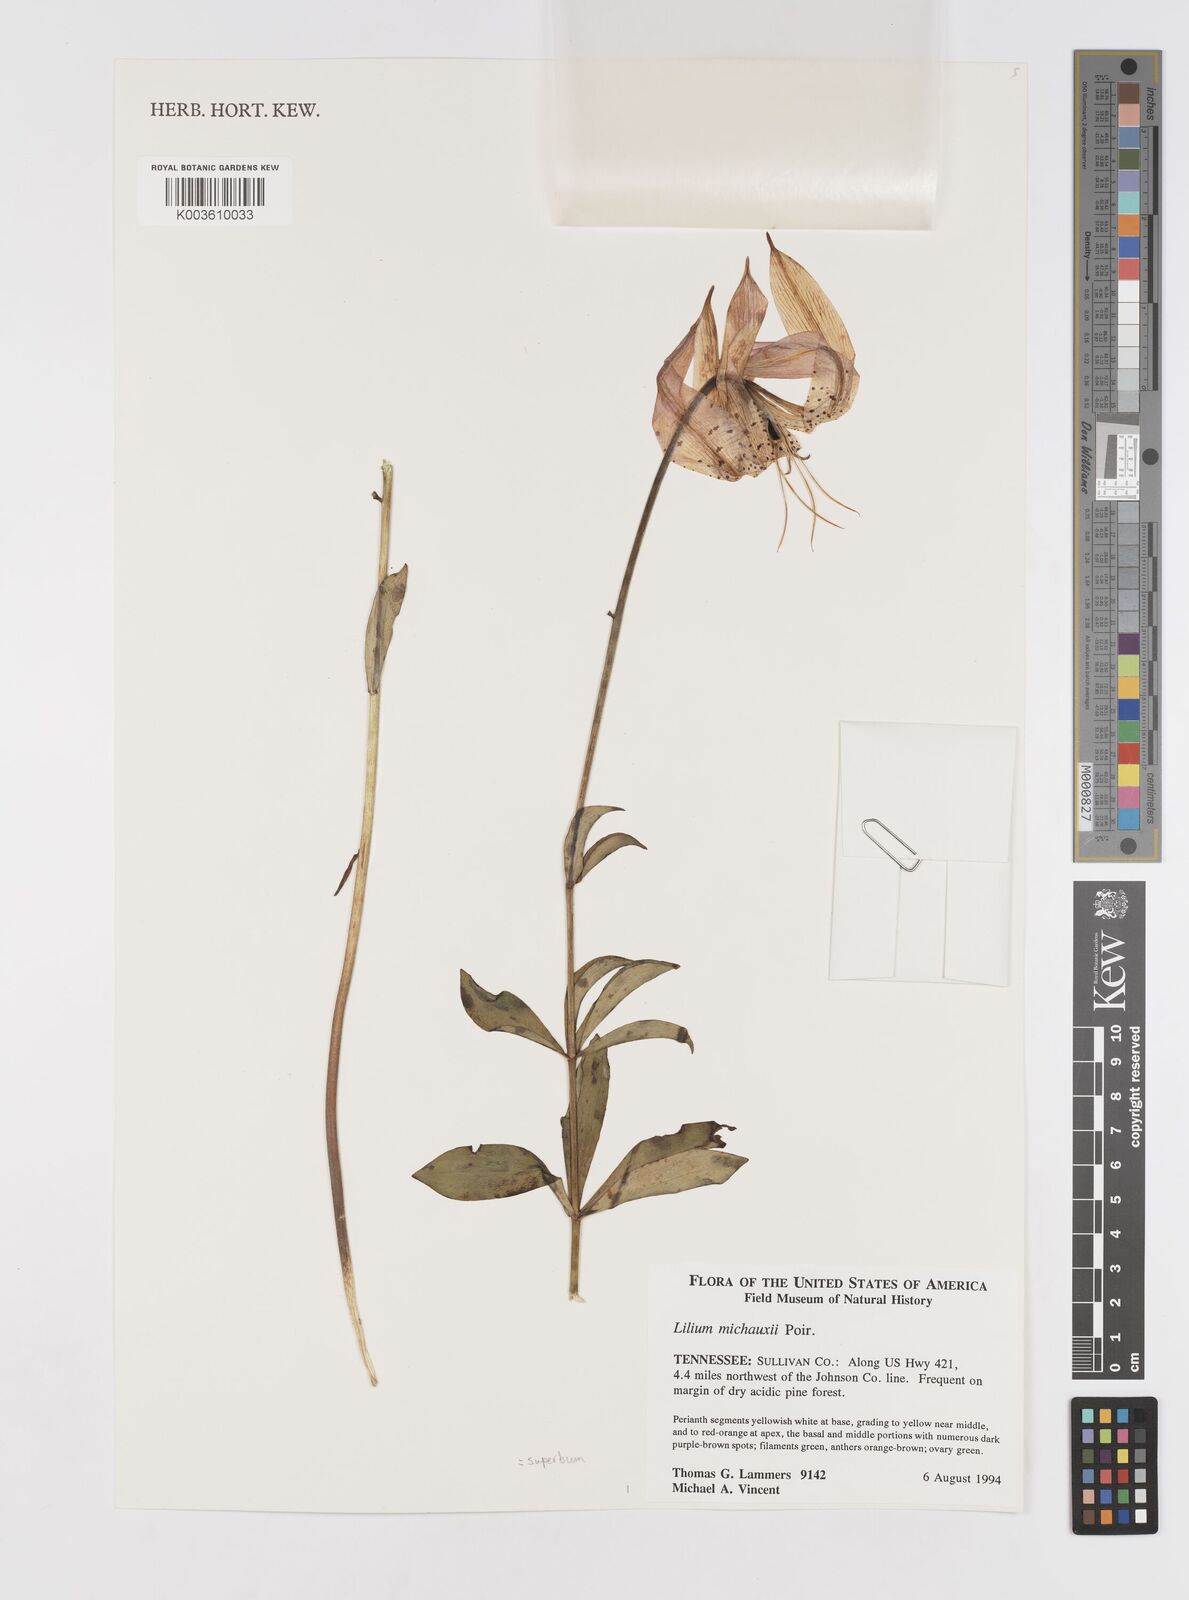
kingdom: Plantae
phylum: Tracheophyta
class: Liliopsida
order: Liliales
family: Liliaceae
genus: Lilium
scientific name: Lilium michauxii
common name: Carolina lily
